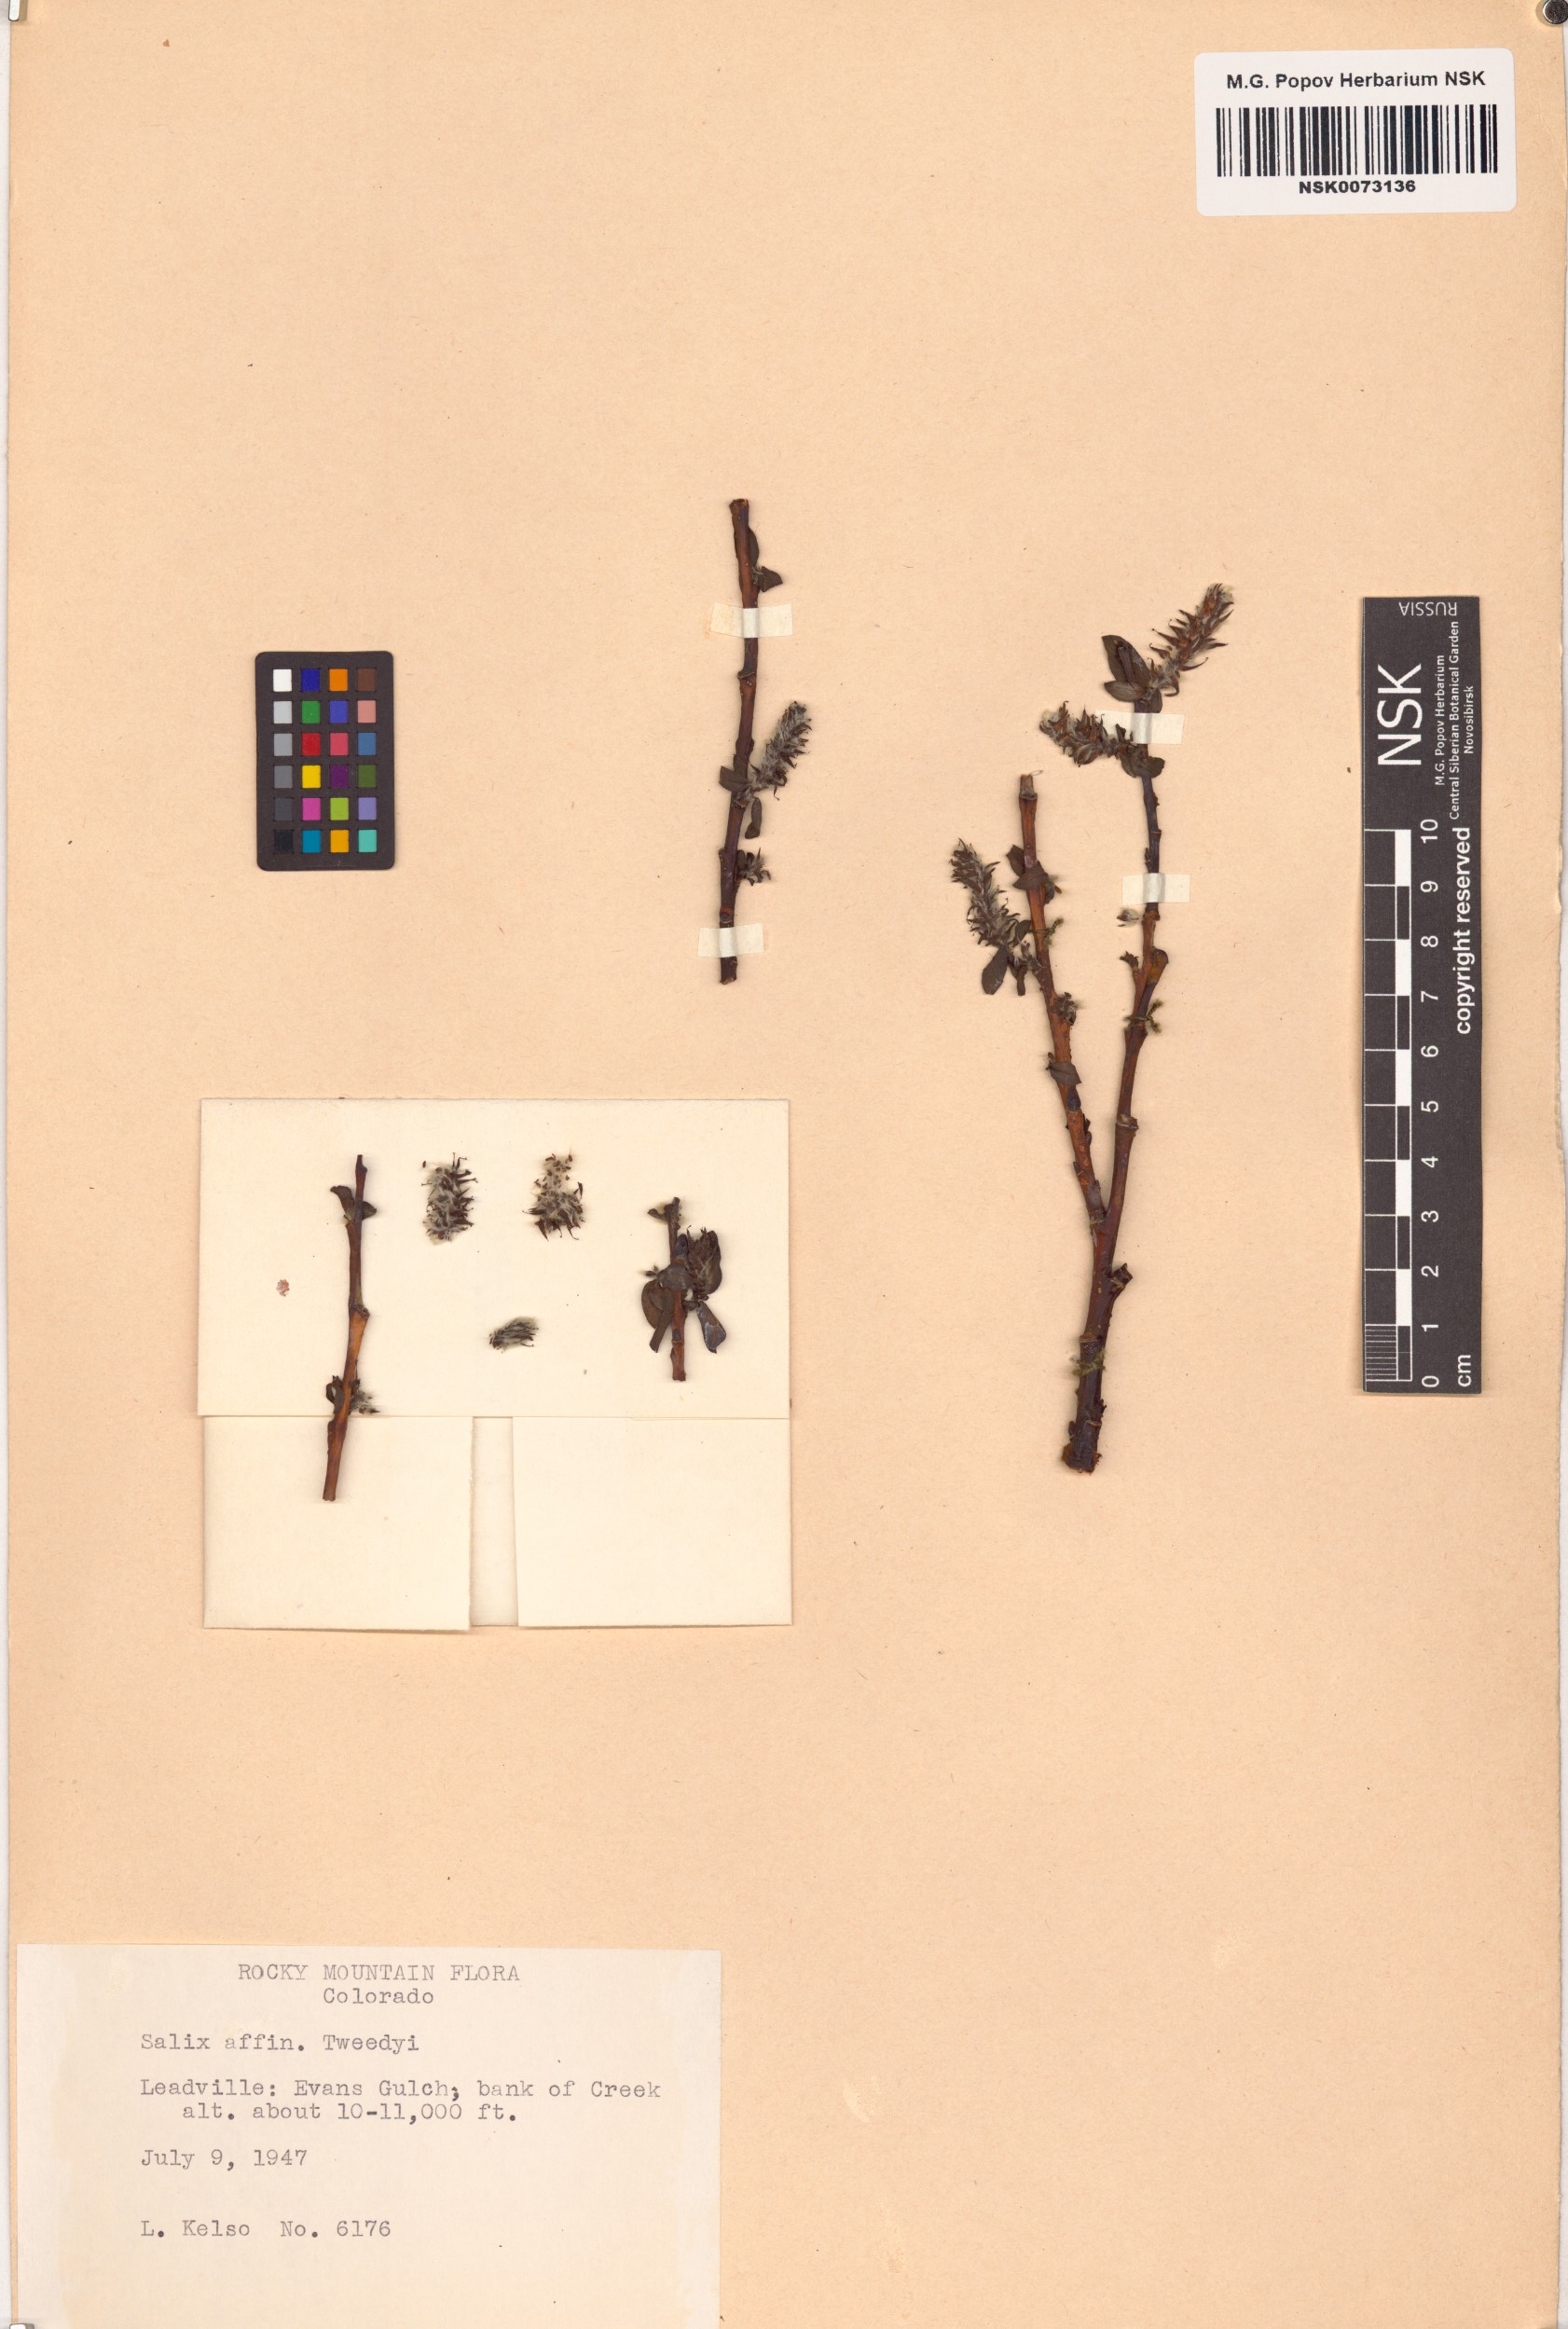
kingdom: Plantae
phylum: Tracheophyta
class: Magnoliopsida
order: Malpighiales
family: Salicaceae
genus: Salix
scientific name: Salix tweedyi
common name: Tweedy's willow
